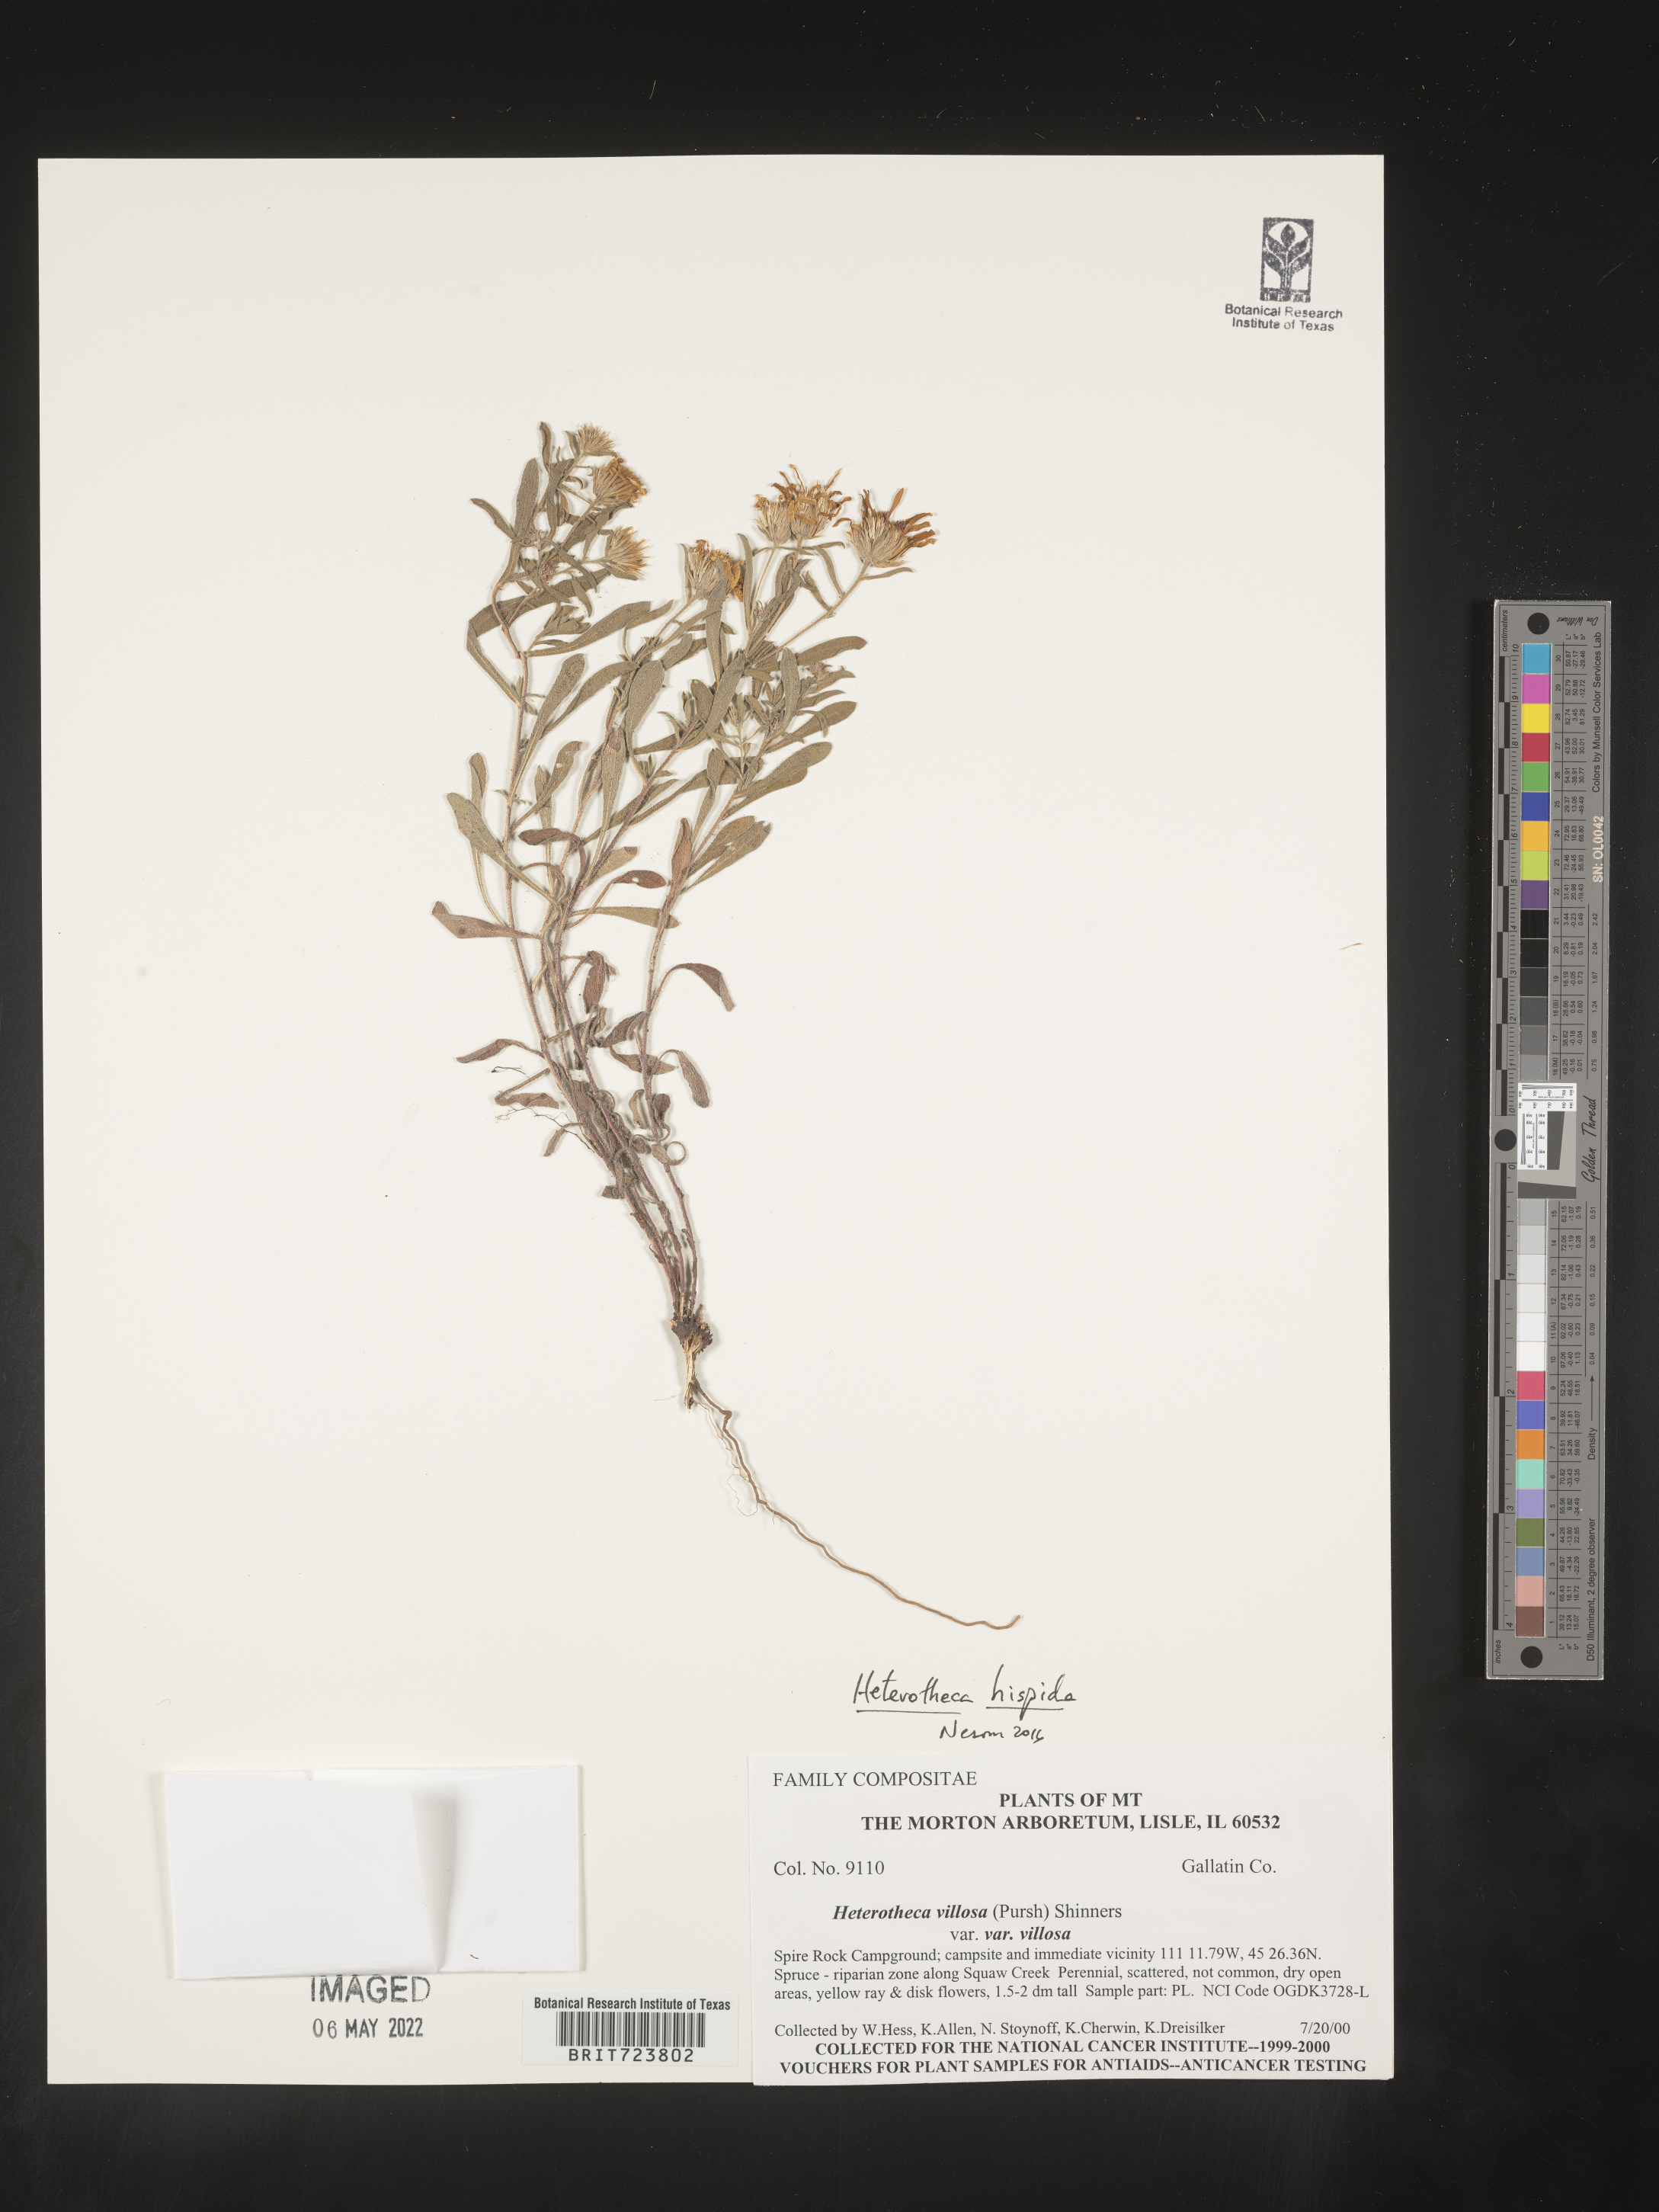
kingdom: Plantae
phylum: Tracheophyta
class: Magnoliopsida
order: Asterales
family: Asteraceae
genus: Heterotheca
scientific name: Heterotheca hispida
